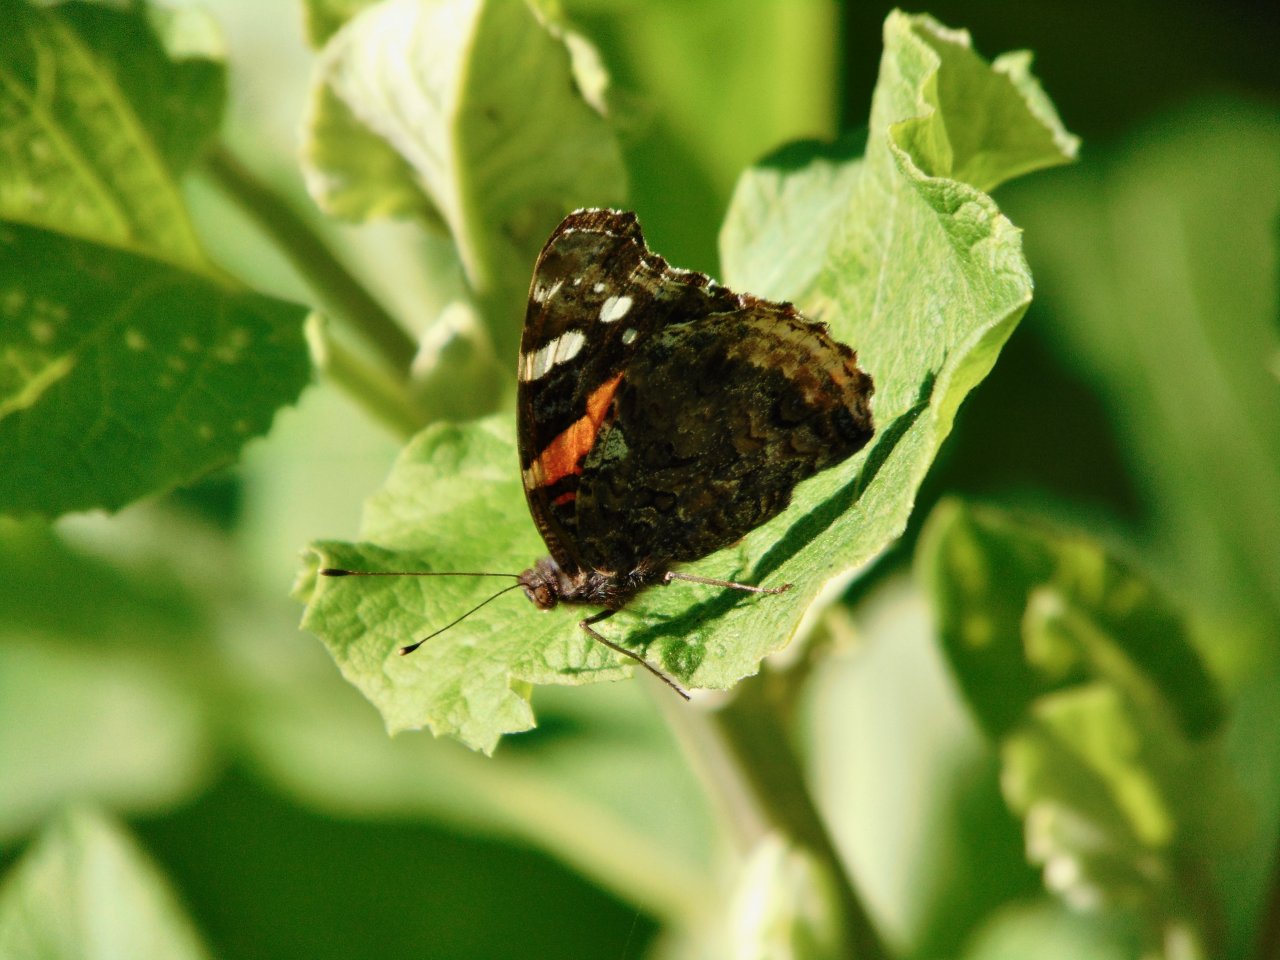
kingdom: Animalia
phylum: Arthropoda
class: Insecta
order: Lepidoptera
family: Nymphalidae
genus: Vanessa
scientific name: Vanessa atalanta
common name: Red Admiral
